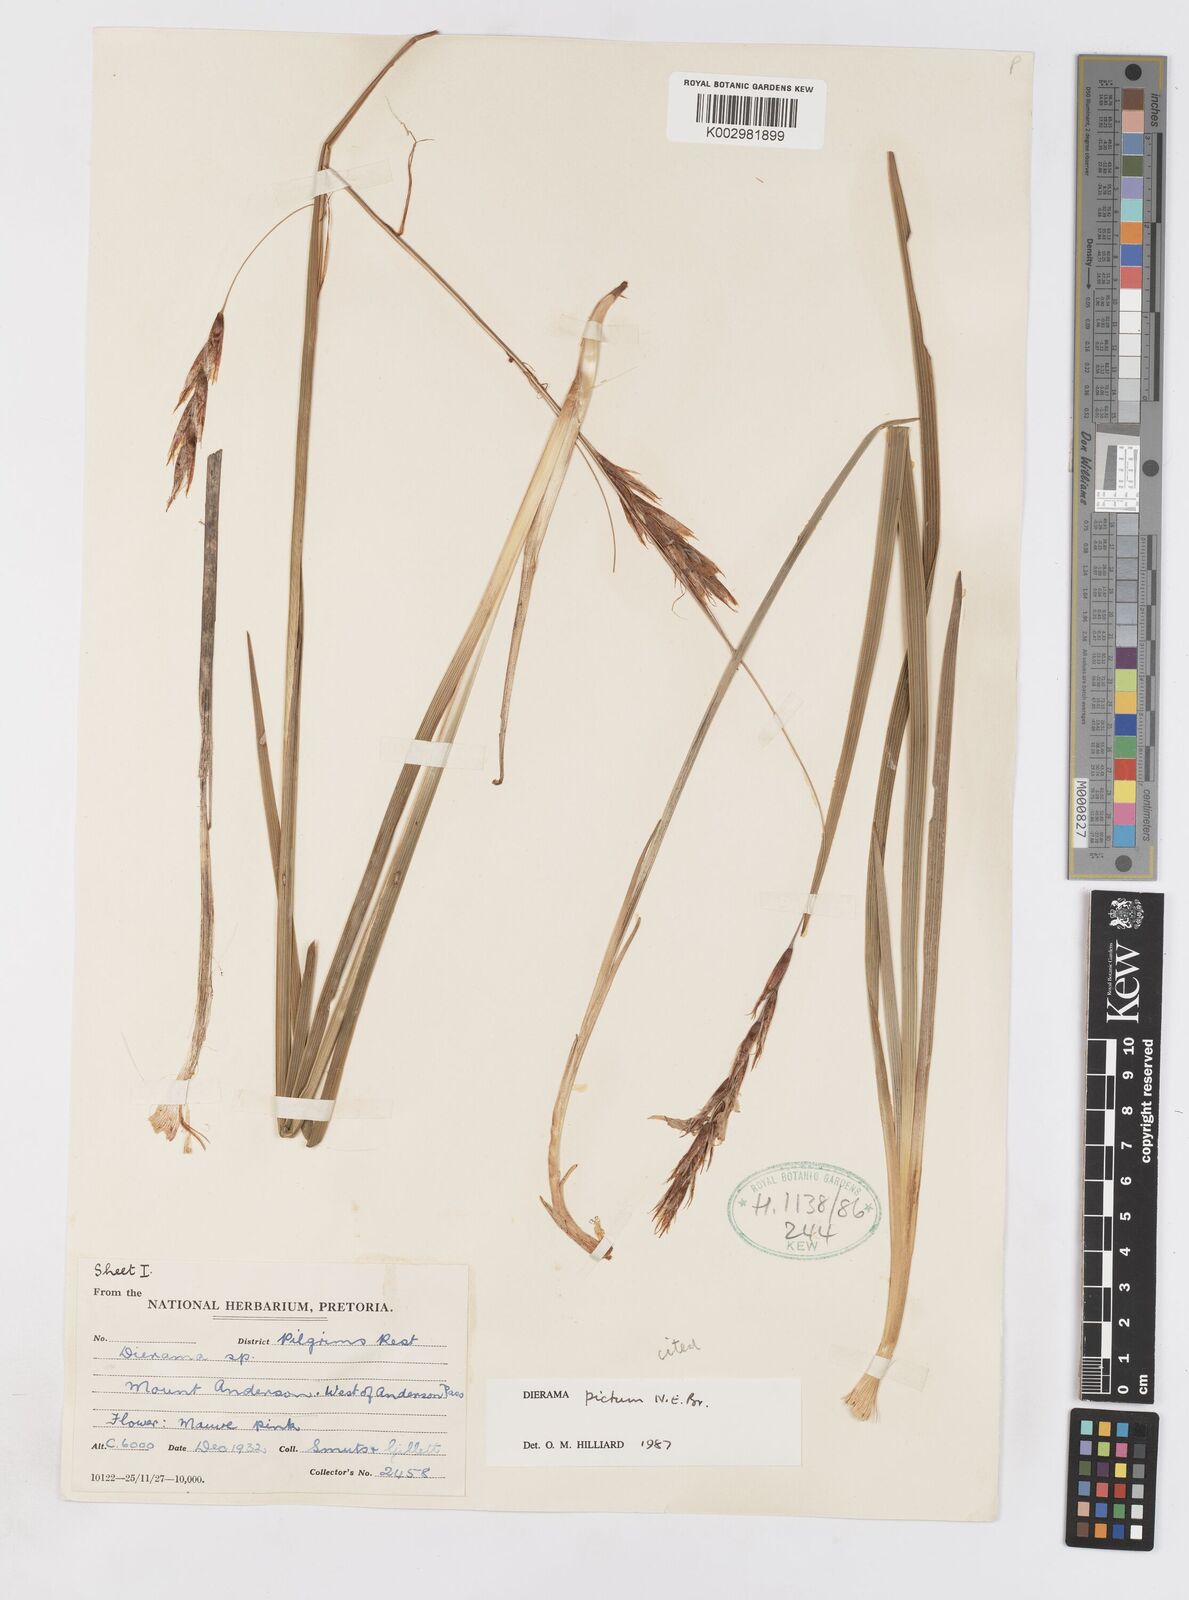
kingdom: Plantae
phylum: Tracheophyta
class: Liliopsida
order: Asparagales
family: Iridaceae
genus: Dierama
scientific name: Dierama pictum
